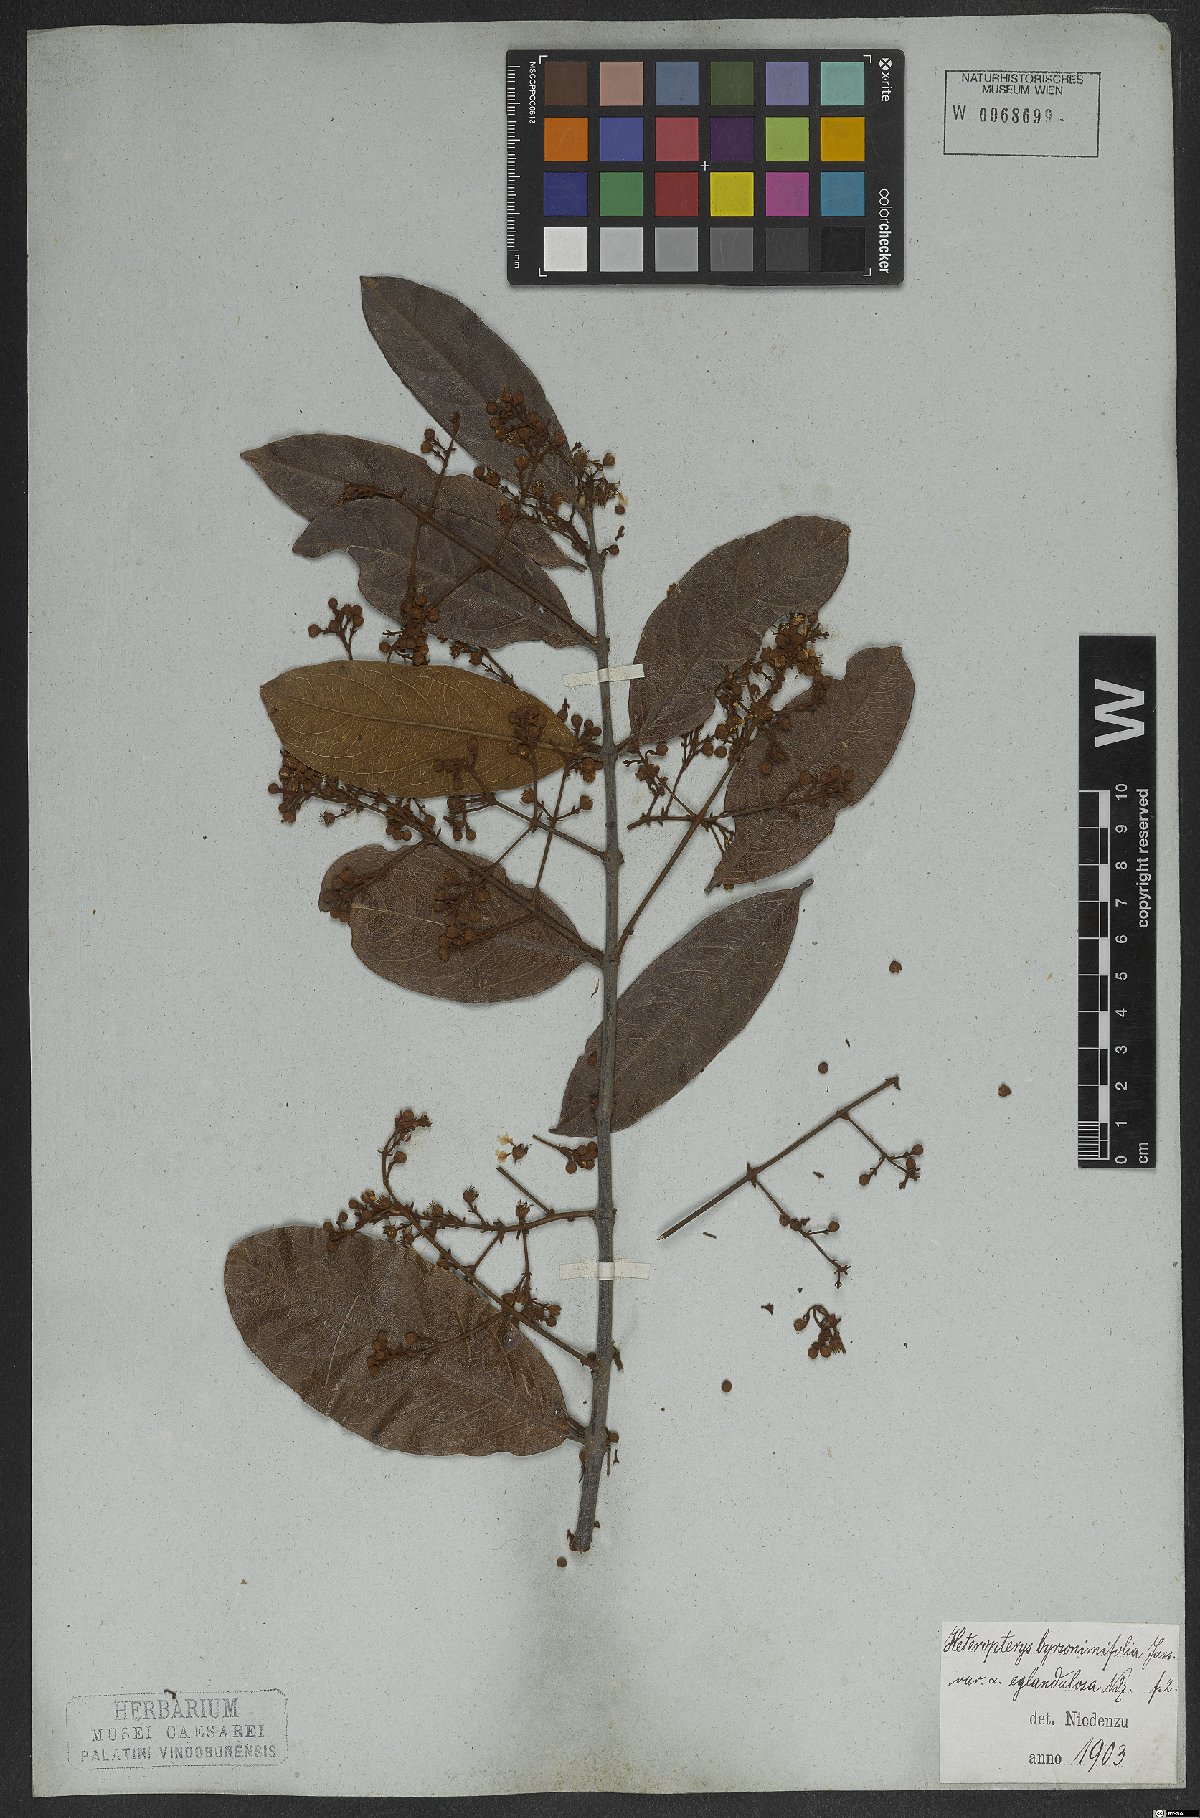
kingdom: Plantae
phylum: Tracheophyta
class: Magnoliopsida
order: Malpighiales
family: Malpighiaceae
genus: Heteropterys
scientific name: Heteropterys byrsonimifolia
